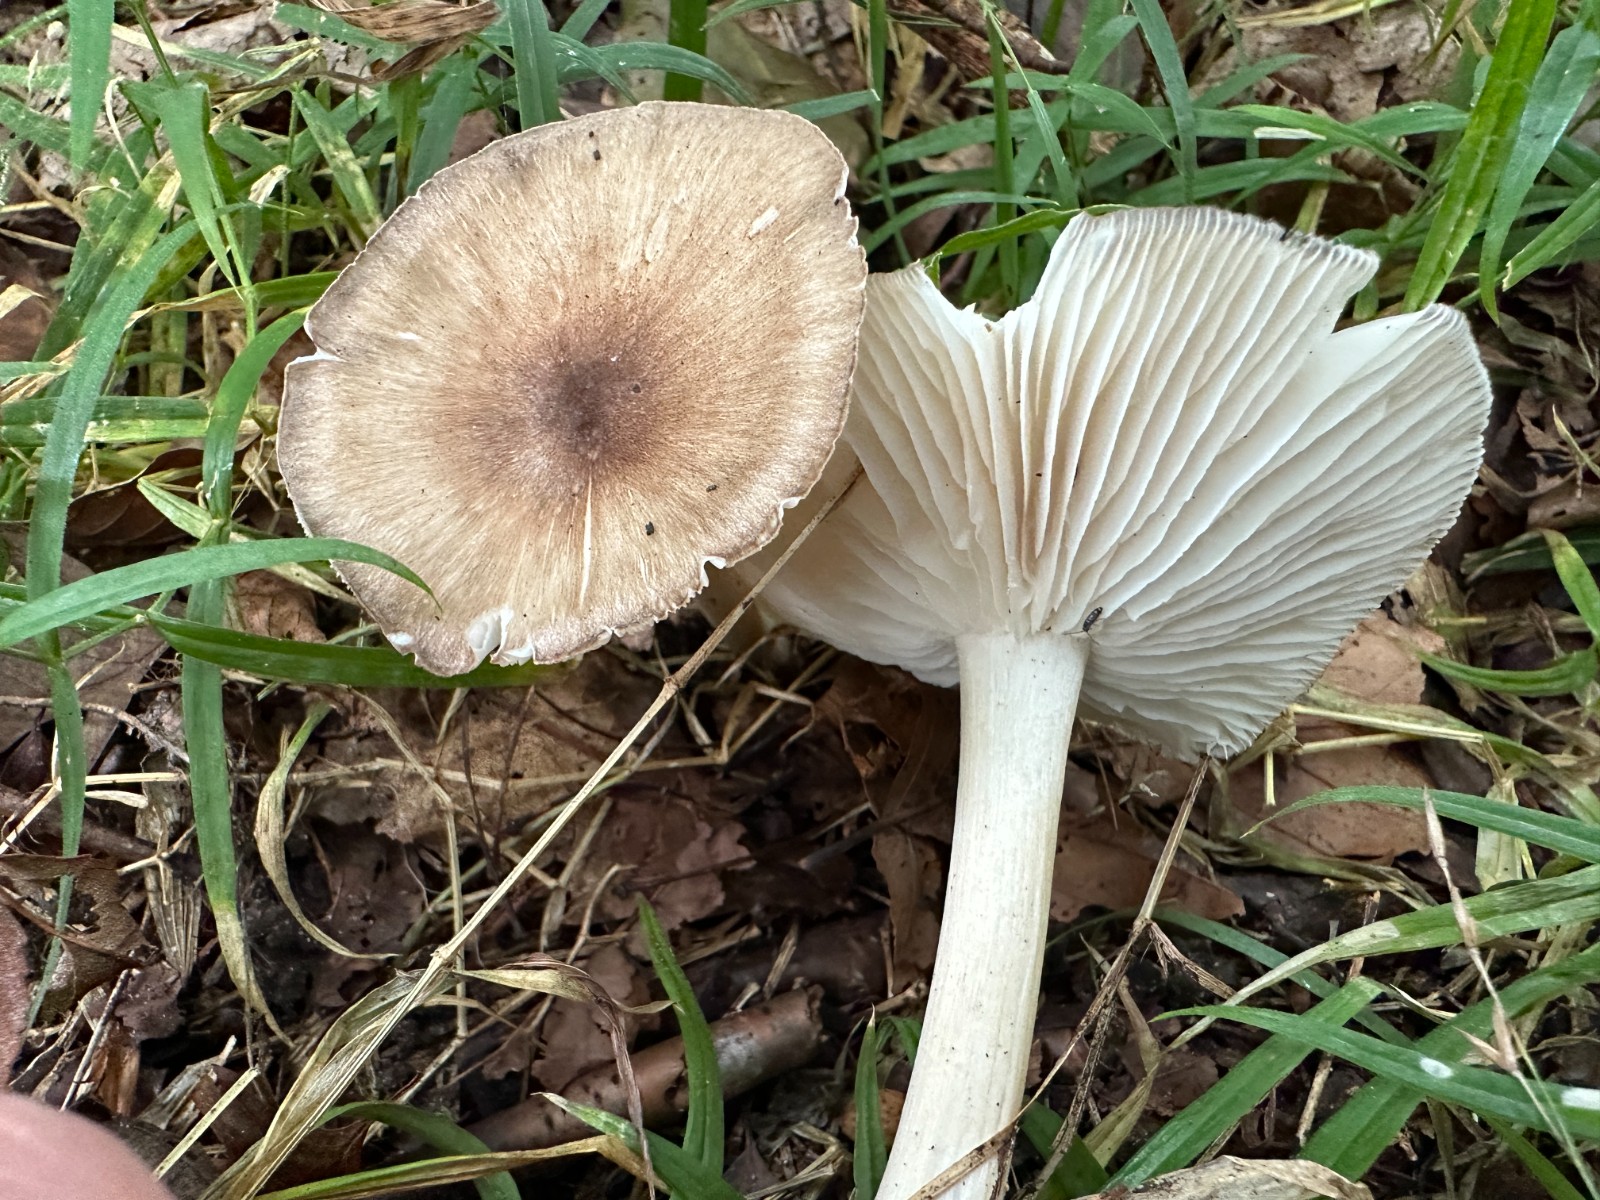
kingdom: Fungi
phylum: Basidiomycota
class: Agaricomycetes
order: Agaricales
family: Tricholomataceae
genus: Megacollybia
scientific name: Megacollybia platyphylla
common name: bredbladet væbnerhat
